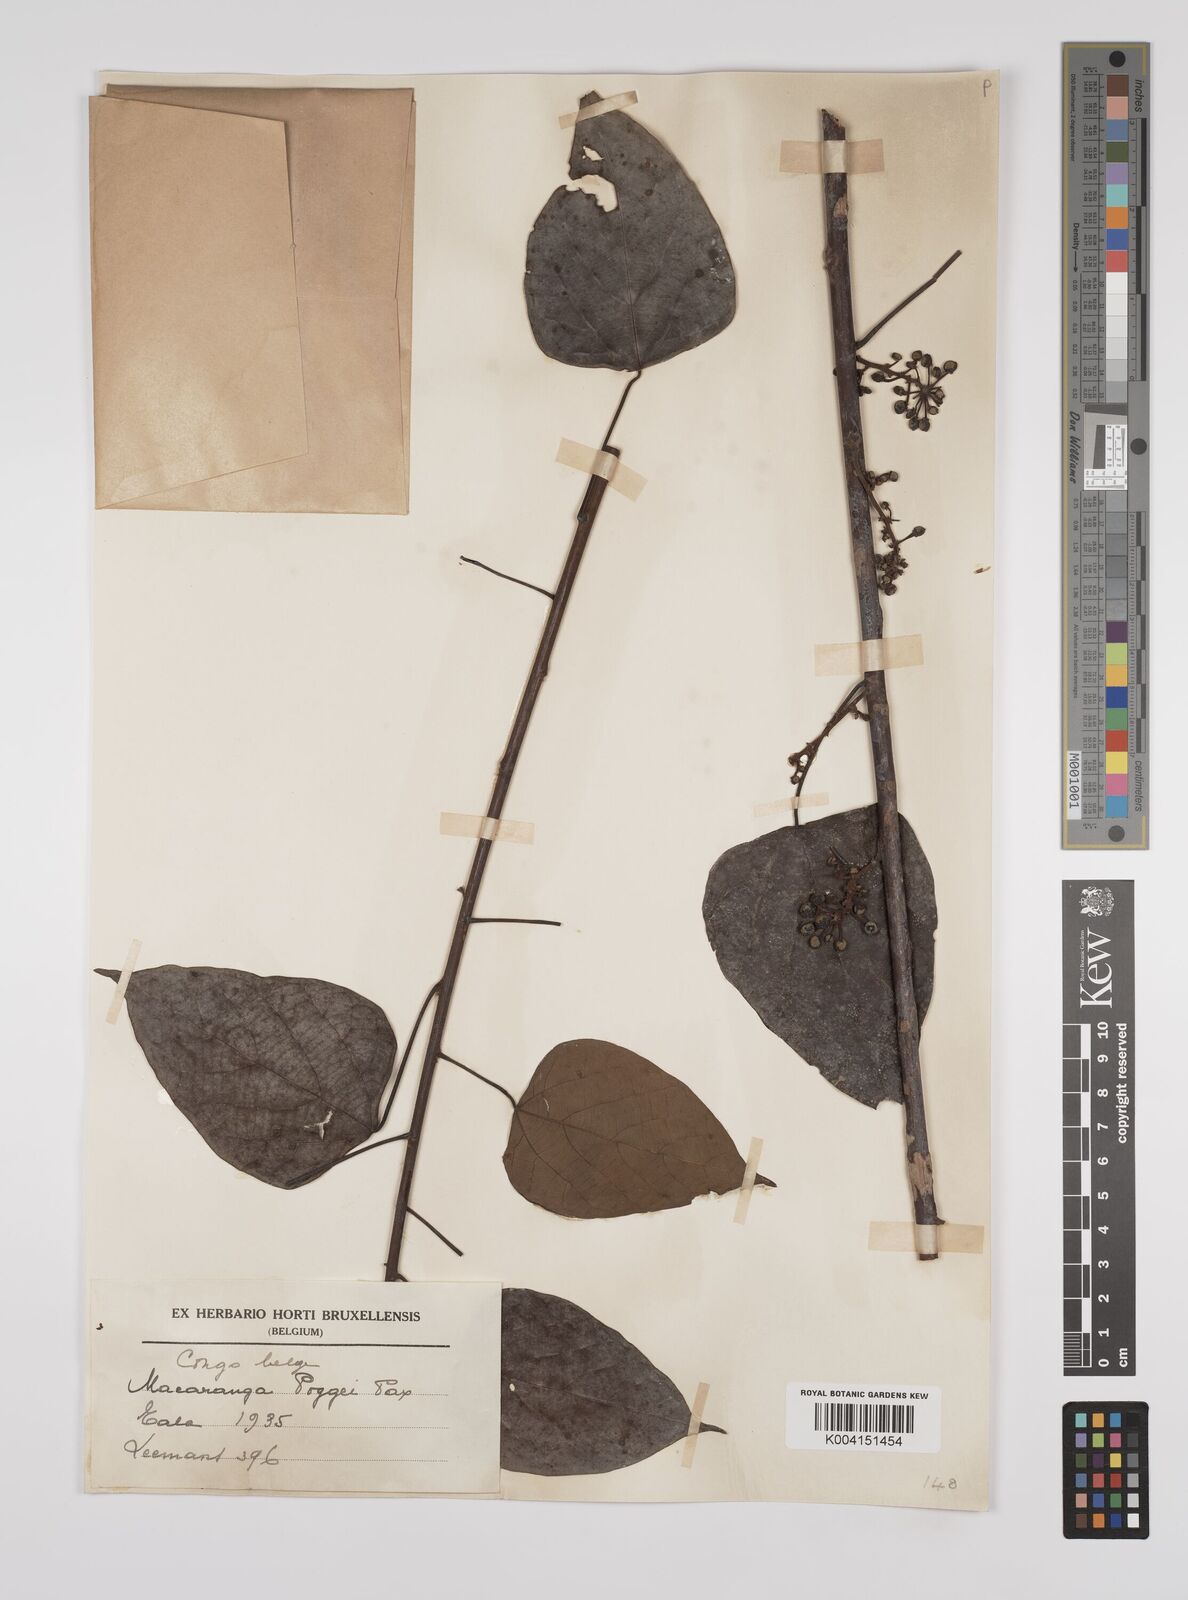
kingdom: Plantae
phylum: Tracheophyta
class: Magnoliopsida
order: Malpighiales
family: Euphorbiaceae
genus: Macaranga
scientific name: Macaranga poggei
